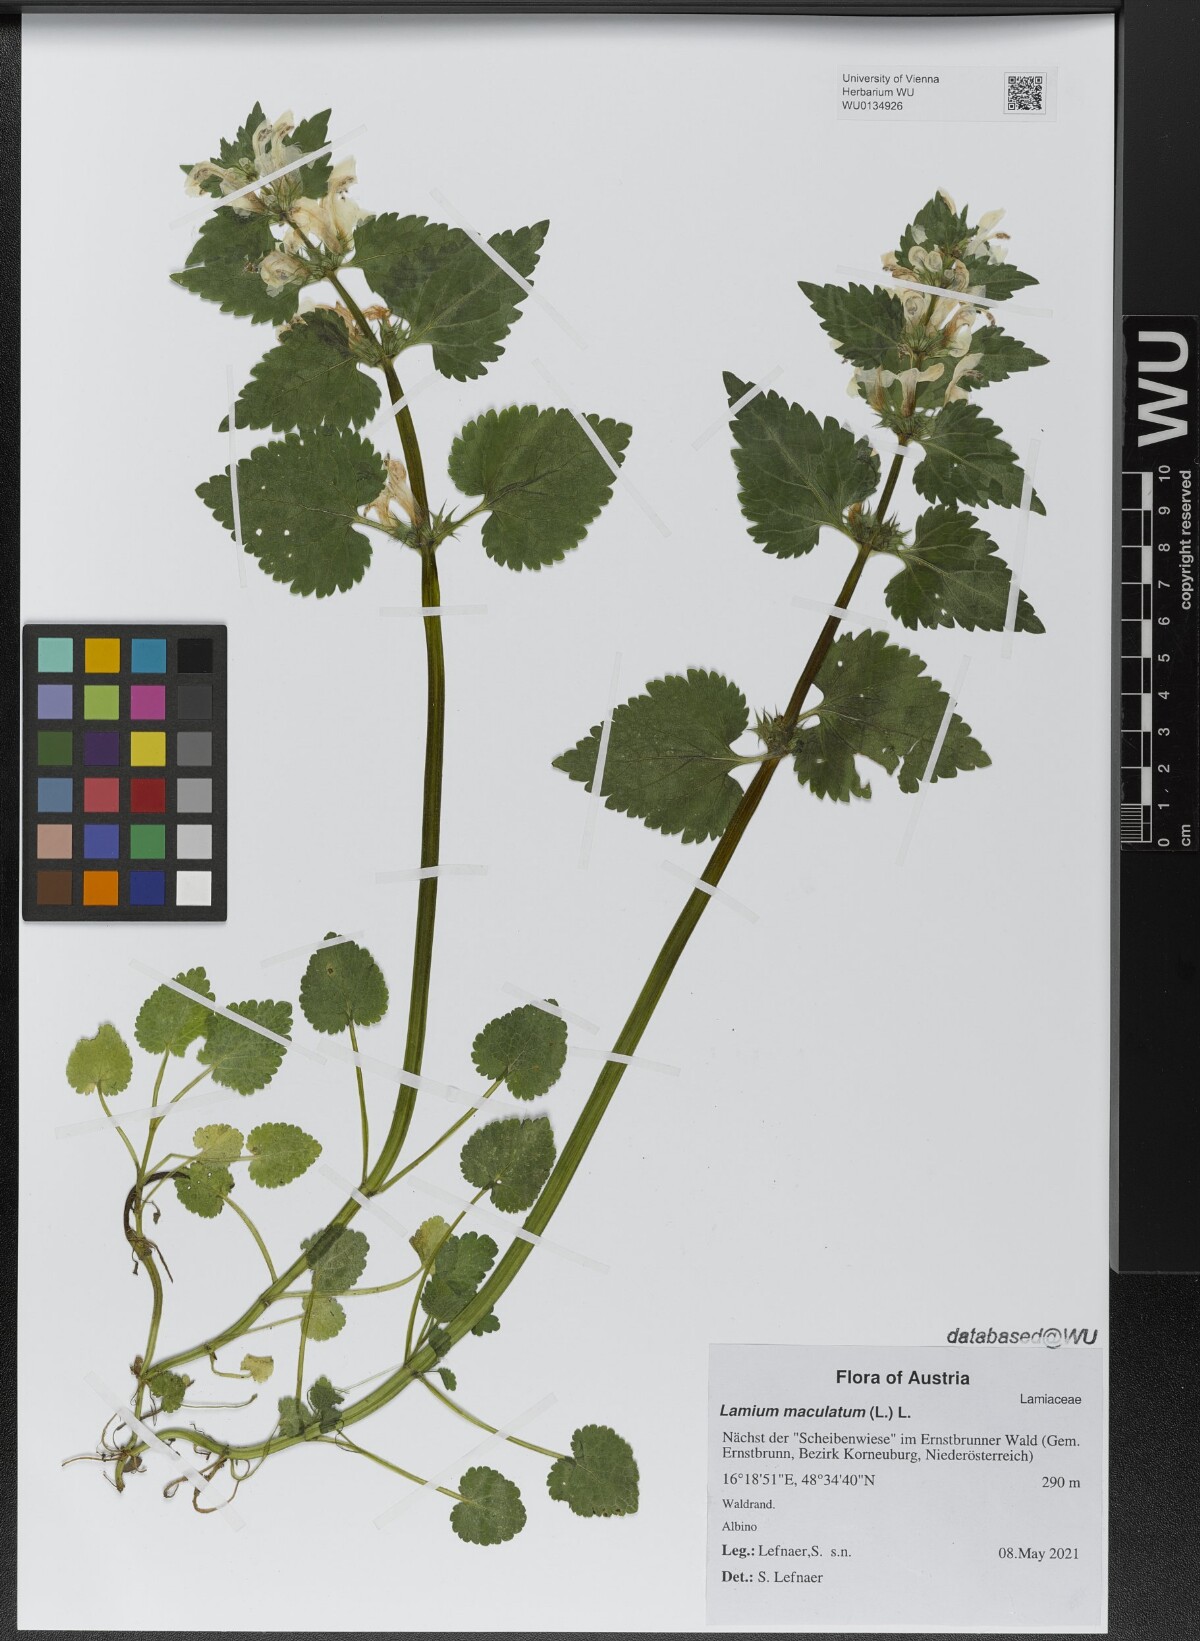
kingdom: Plantae
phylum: Tracheophyta
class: Magnoliopsida
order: Lamiales
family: Lamiaceae
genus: Lamium
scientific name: Lamium maculatum
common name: Spotted dead-nettle
